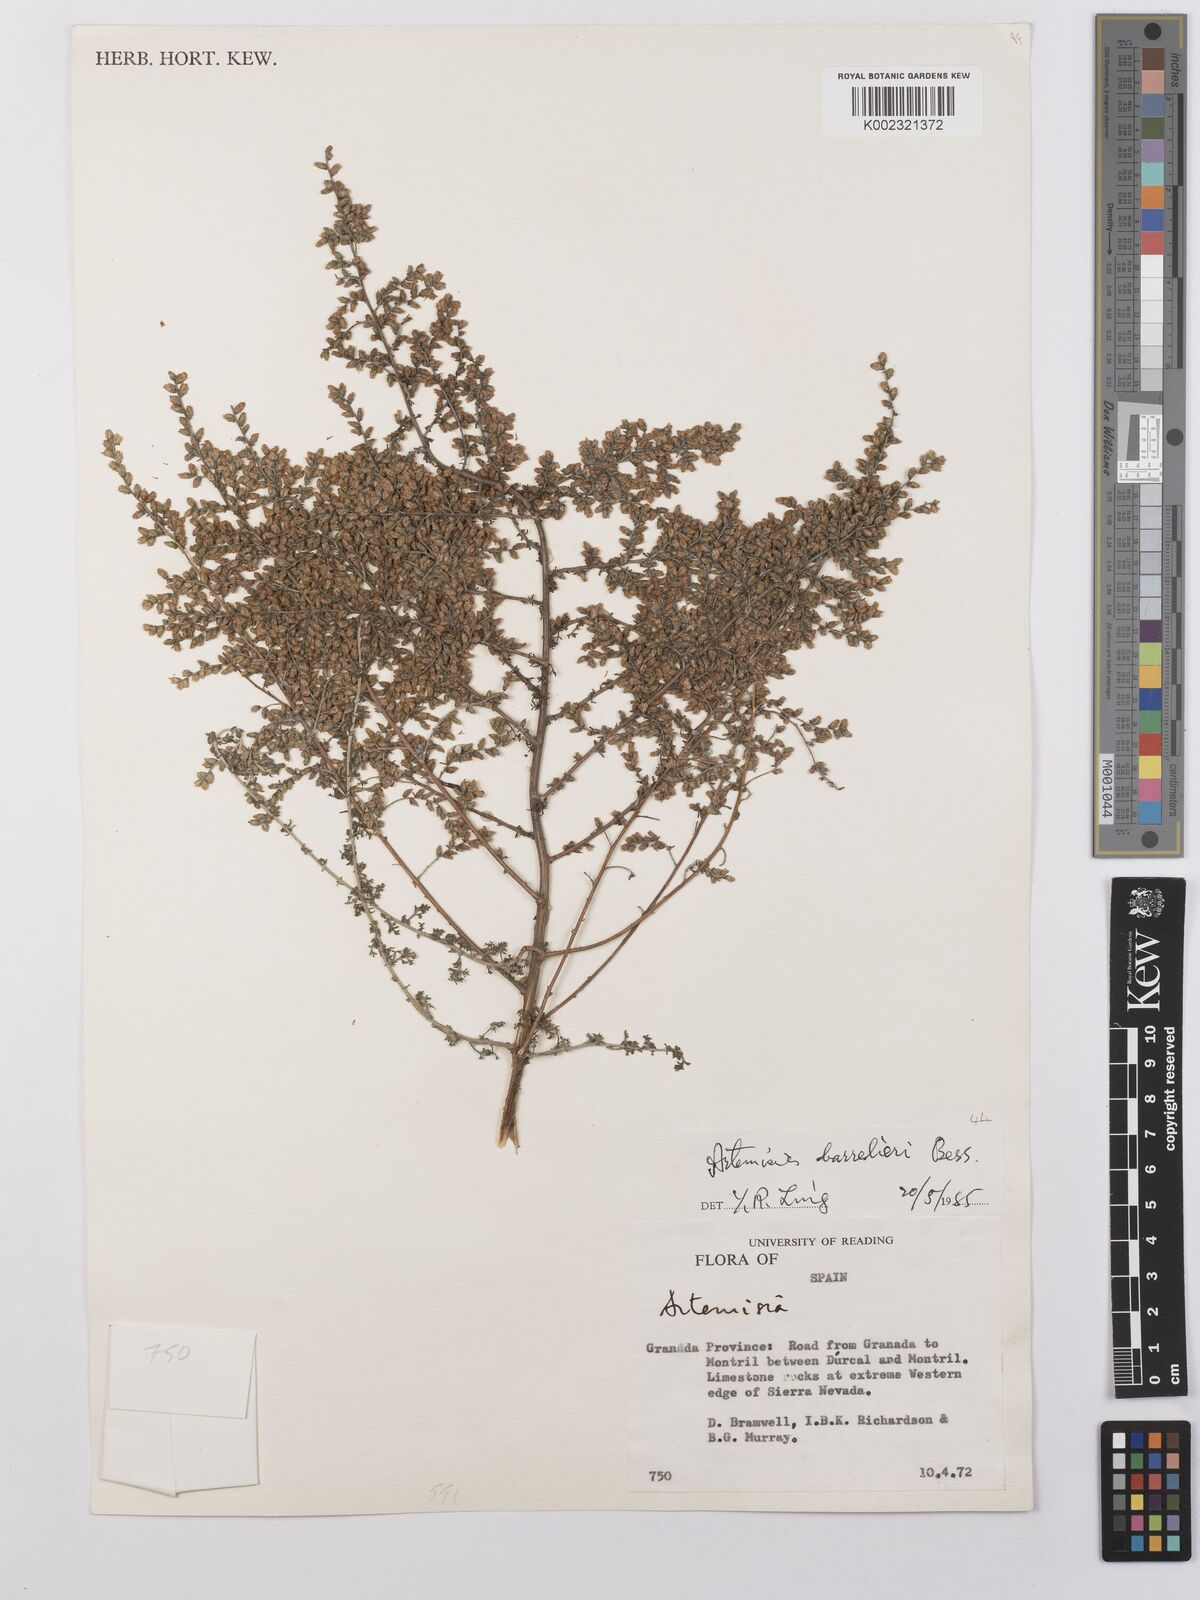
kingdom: Plantae
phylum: Tracheophyta
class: Magnoliopsida
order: Asterales
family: Asteraceae
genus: Artemisia
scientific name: Artemisia barrelieri
